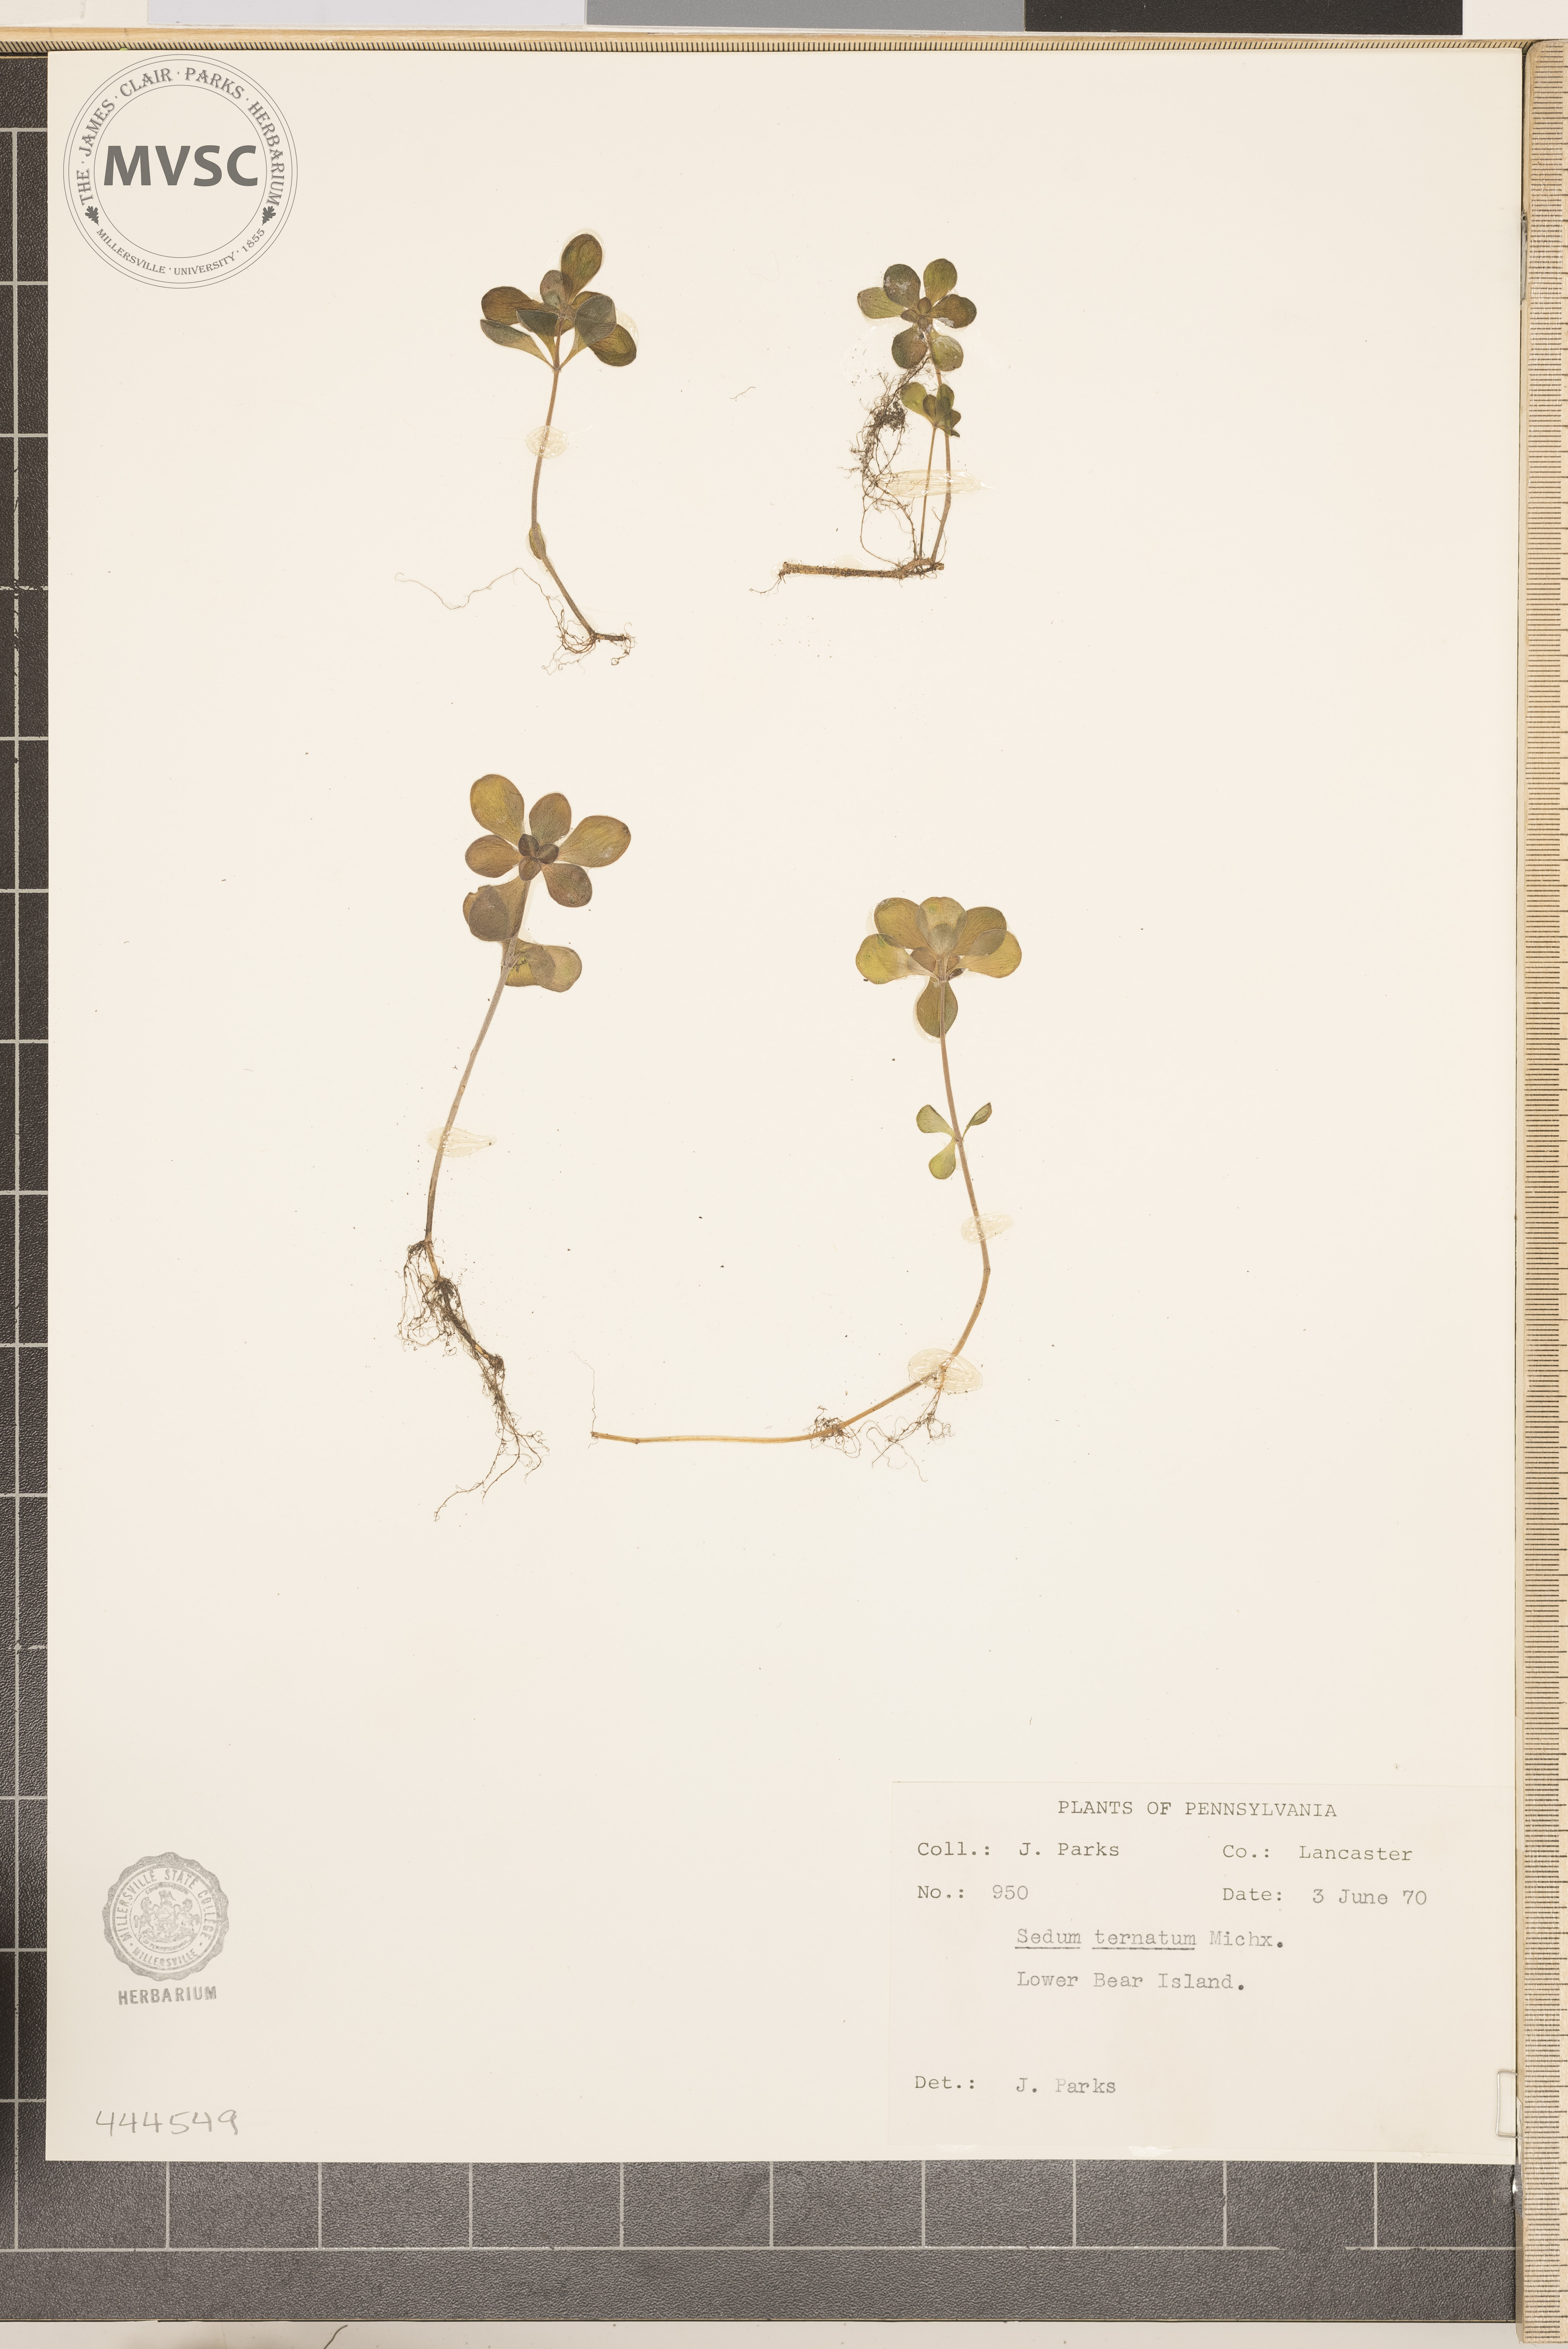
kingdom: Plantae
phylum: Tracheophyta
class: Magnoliopsida
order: Saxifragales
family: Crassulaceae
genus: Sedum
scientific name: Sedum ternatum
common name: Wild stonecrop
